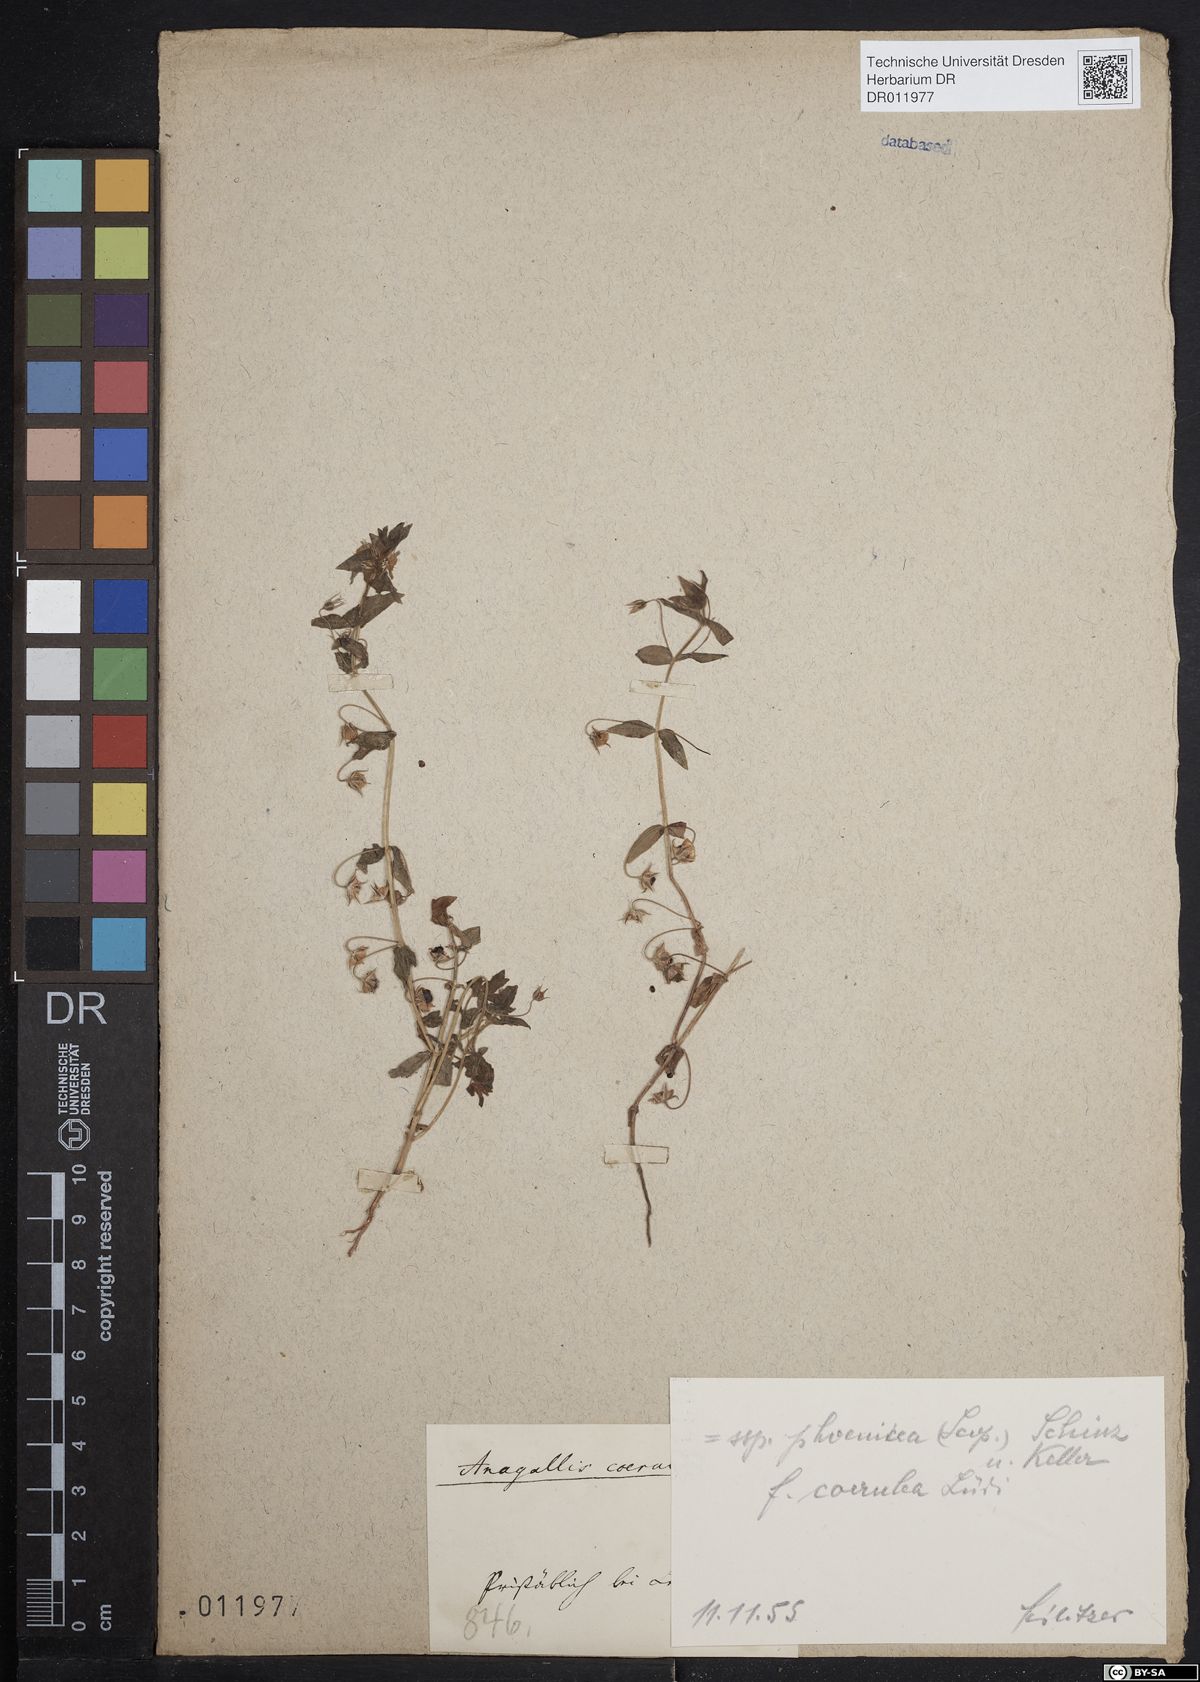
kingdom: Plantae
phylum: Tracheophyta
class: Magnoliopsida
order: Ericales
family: Primulaceae
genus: Lysimachia
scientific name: Lysimachia arvensis
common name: Scarlet pimpernel
